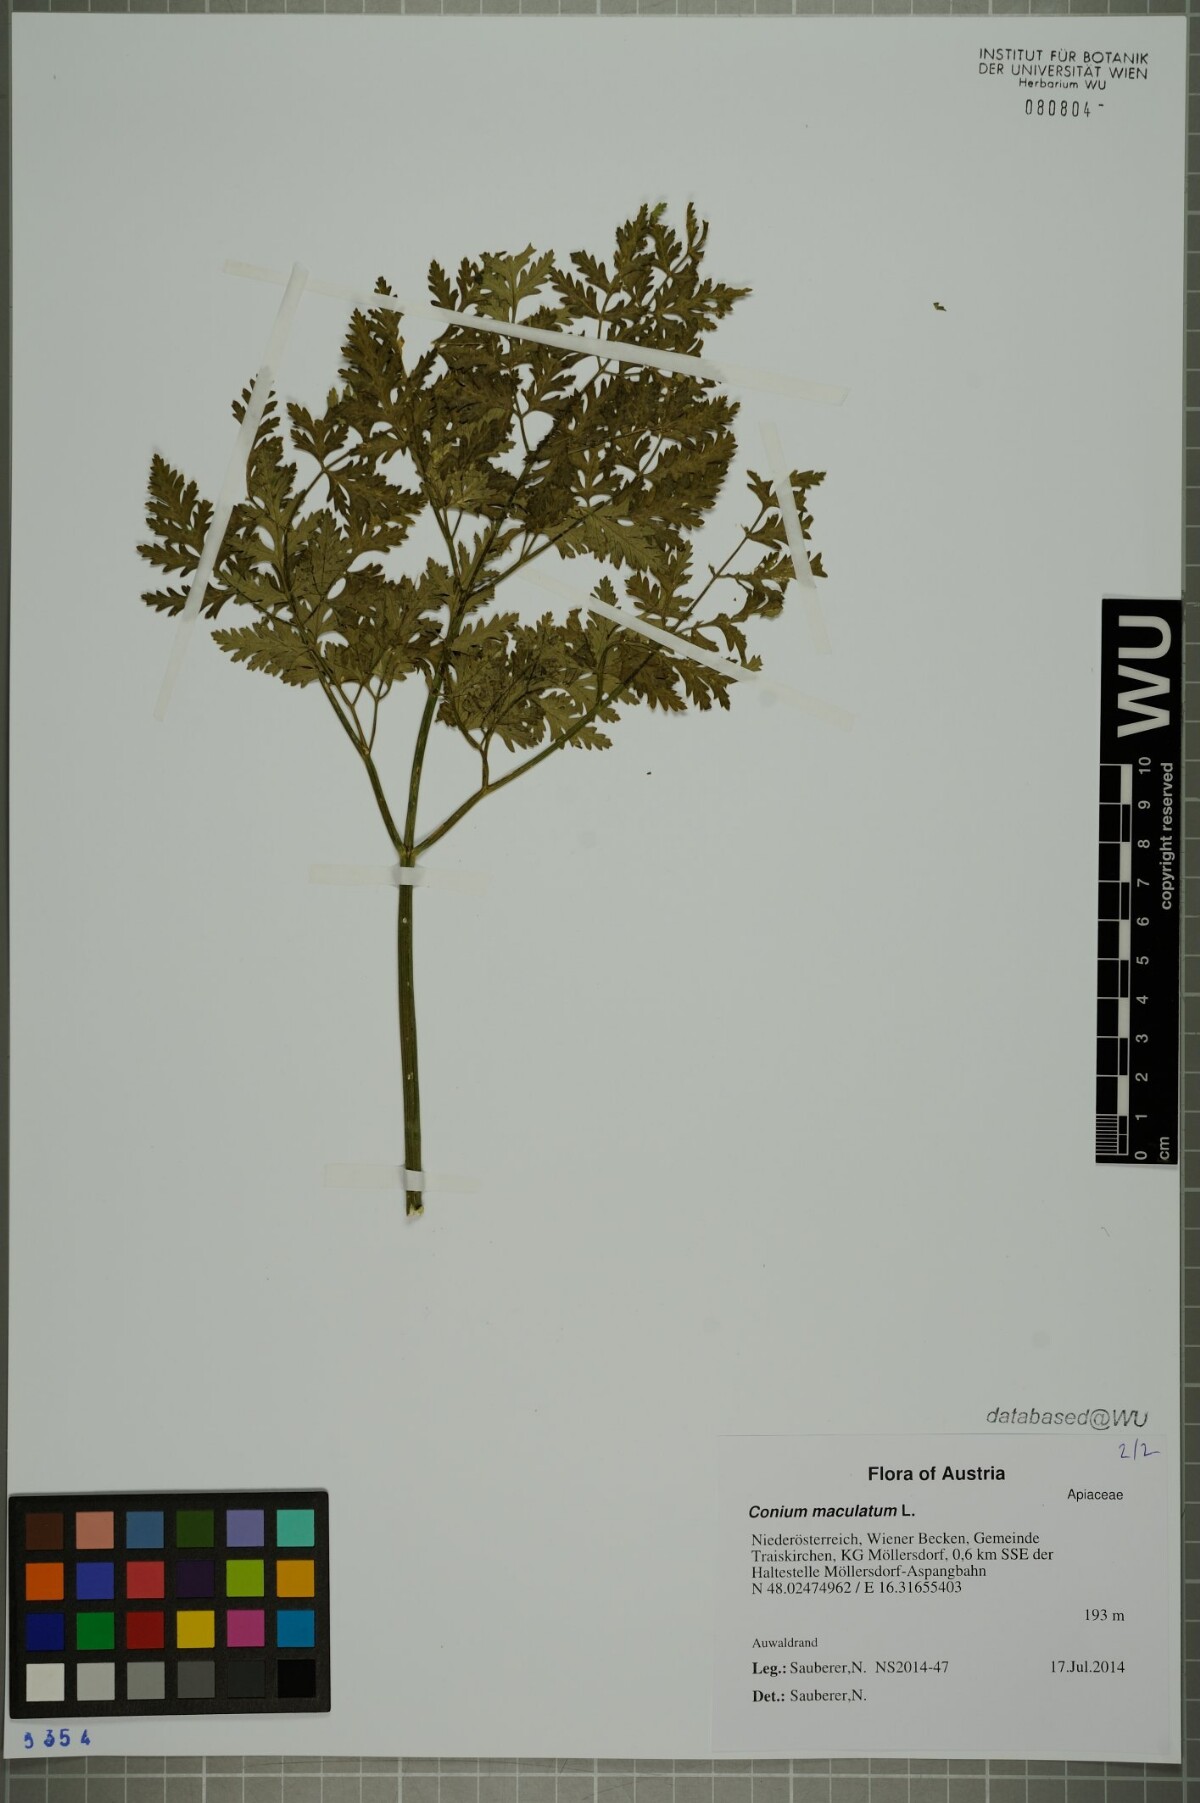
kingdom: Plantae
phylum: Tracheophyta
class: Magnoliopsida
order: Apiales
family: Apiaceae
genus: Conium
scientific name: Conium maculatum
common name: Hemlock
